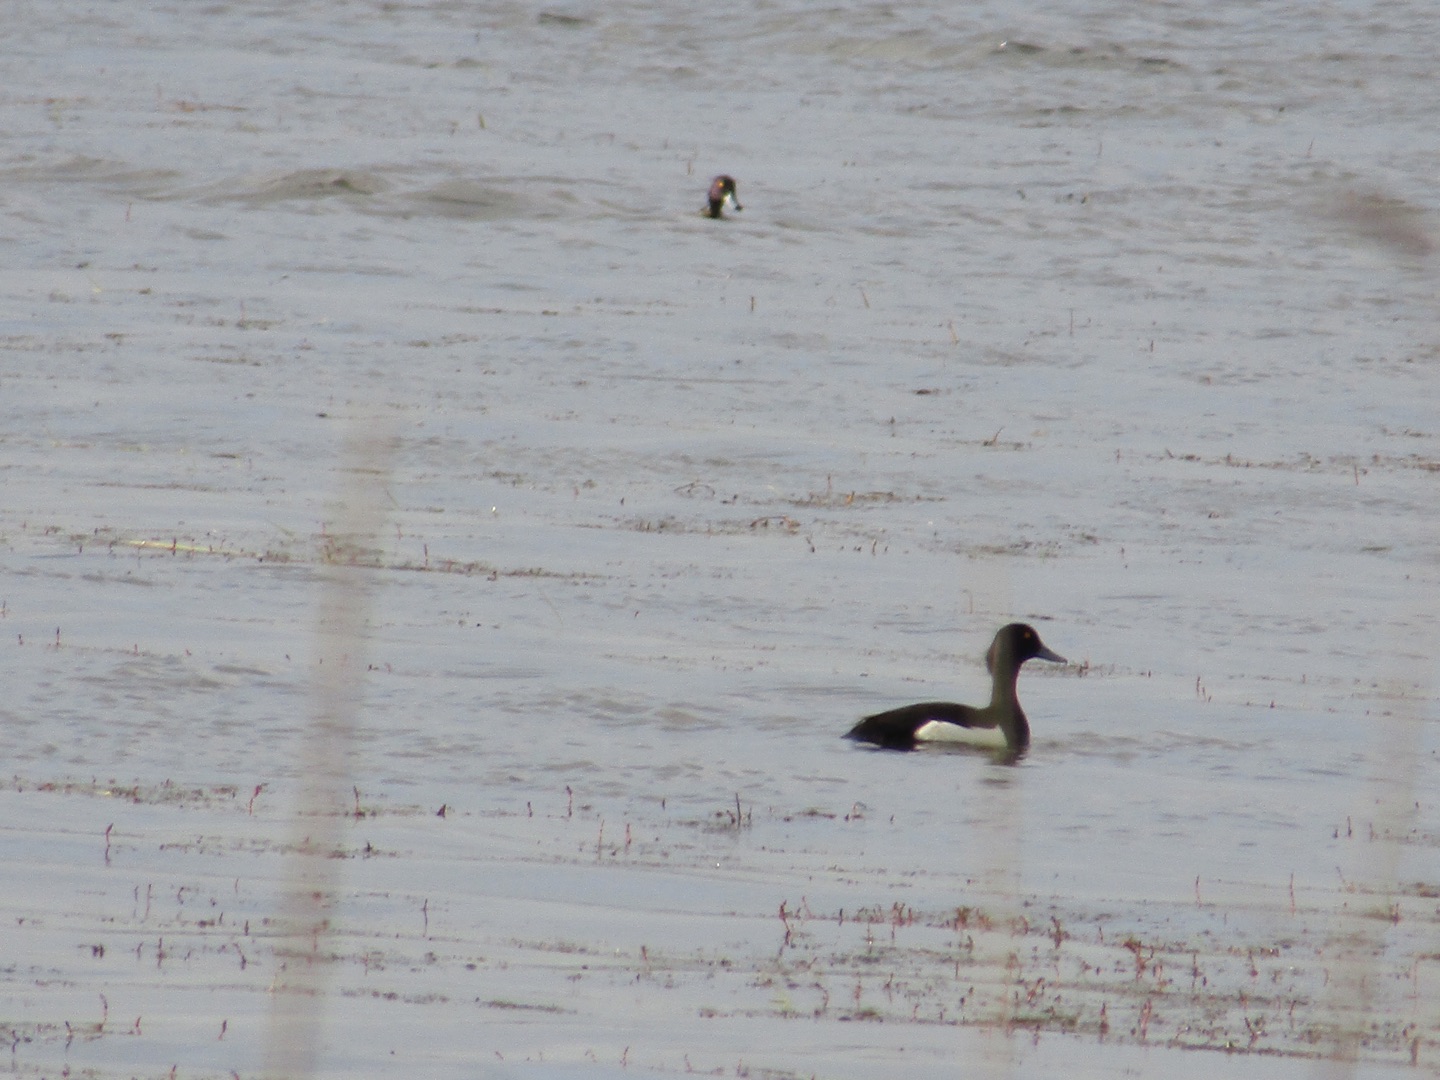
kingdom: Animalia
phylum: Chordata
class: Aves
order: Anseriformes
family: Anatidae
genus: Aythya
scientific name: Aythya fuligula
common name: Troldand
